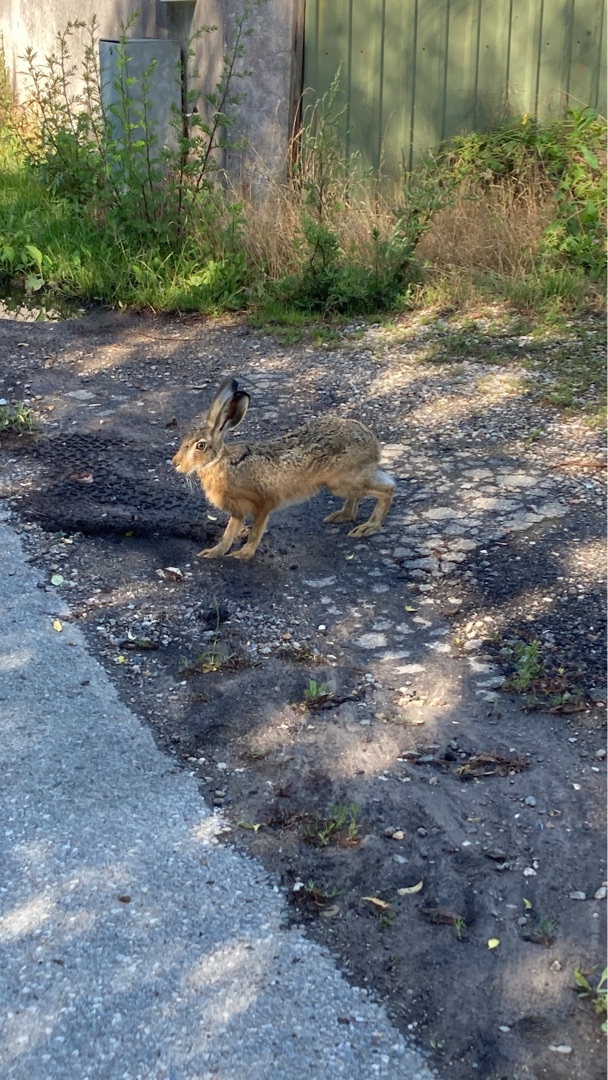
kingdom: Animalia
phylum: Chordata
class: Mammalia
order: Lagomorpha
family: Leporidae
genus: Lepus
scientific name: Lepus europaeus
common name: Hare
